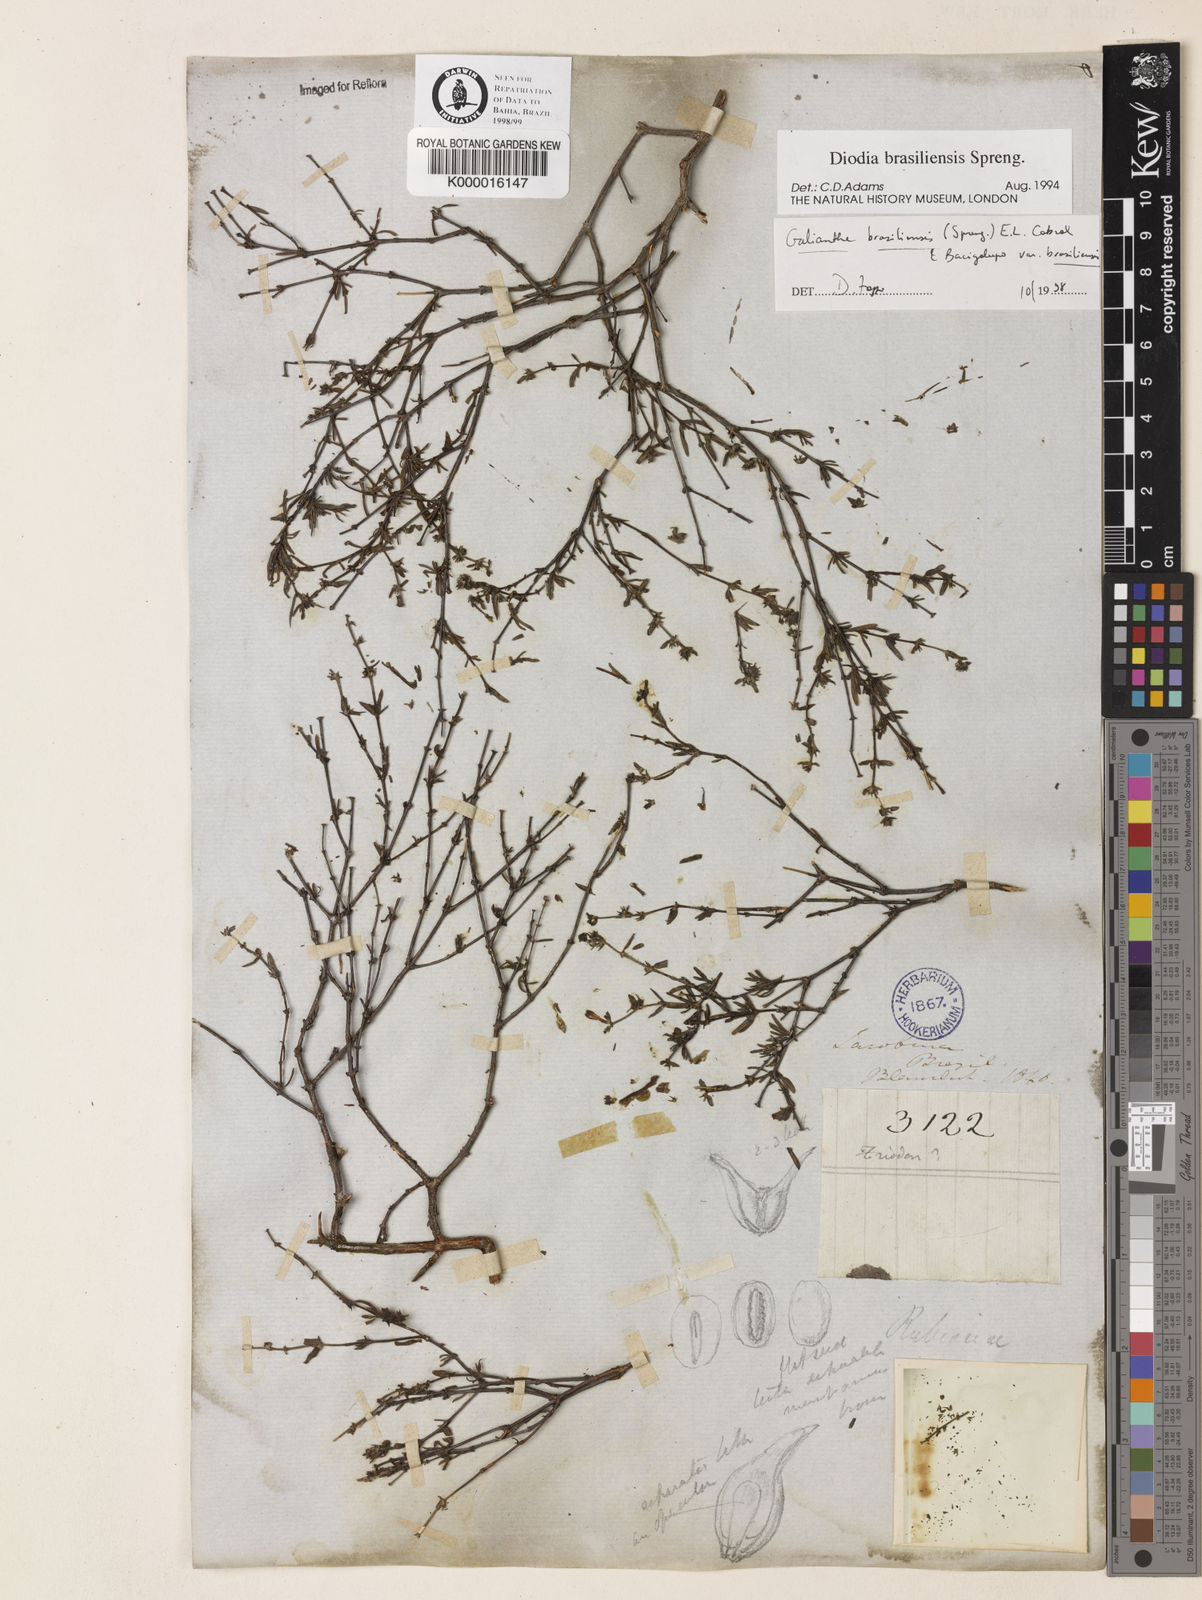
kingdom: Plantae
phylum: Tracheophyta
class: Magnoliopsida
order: Gentianales
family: Rubiaceae
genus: Galianthe
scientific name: Galianthe brasiliensis
